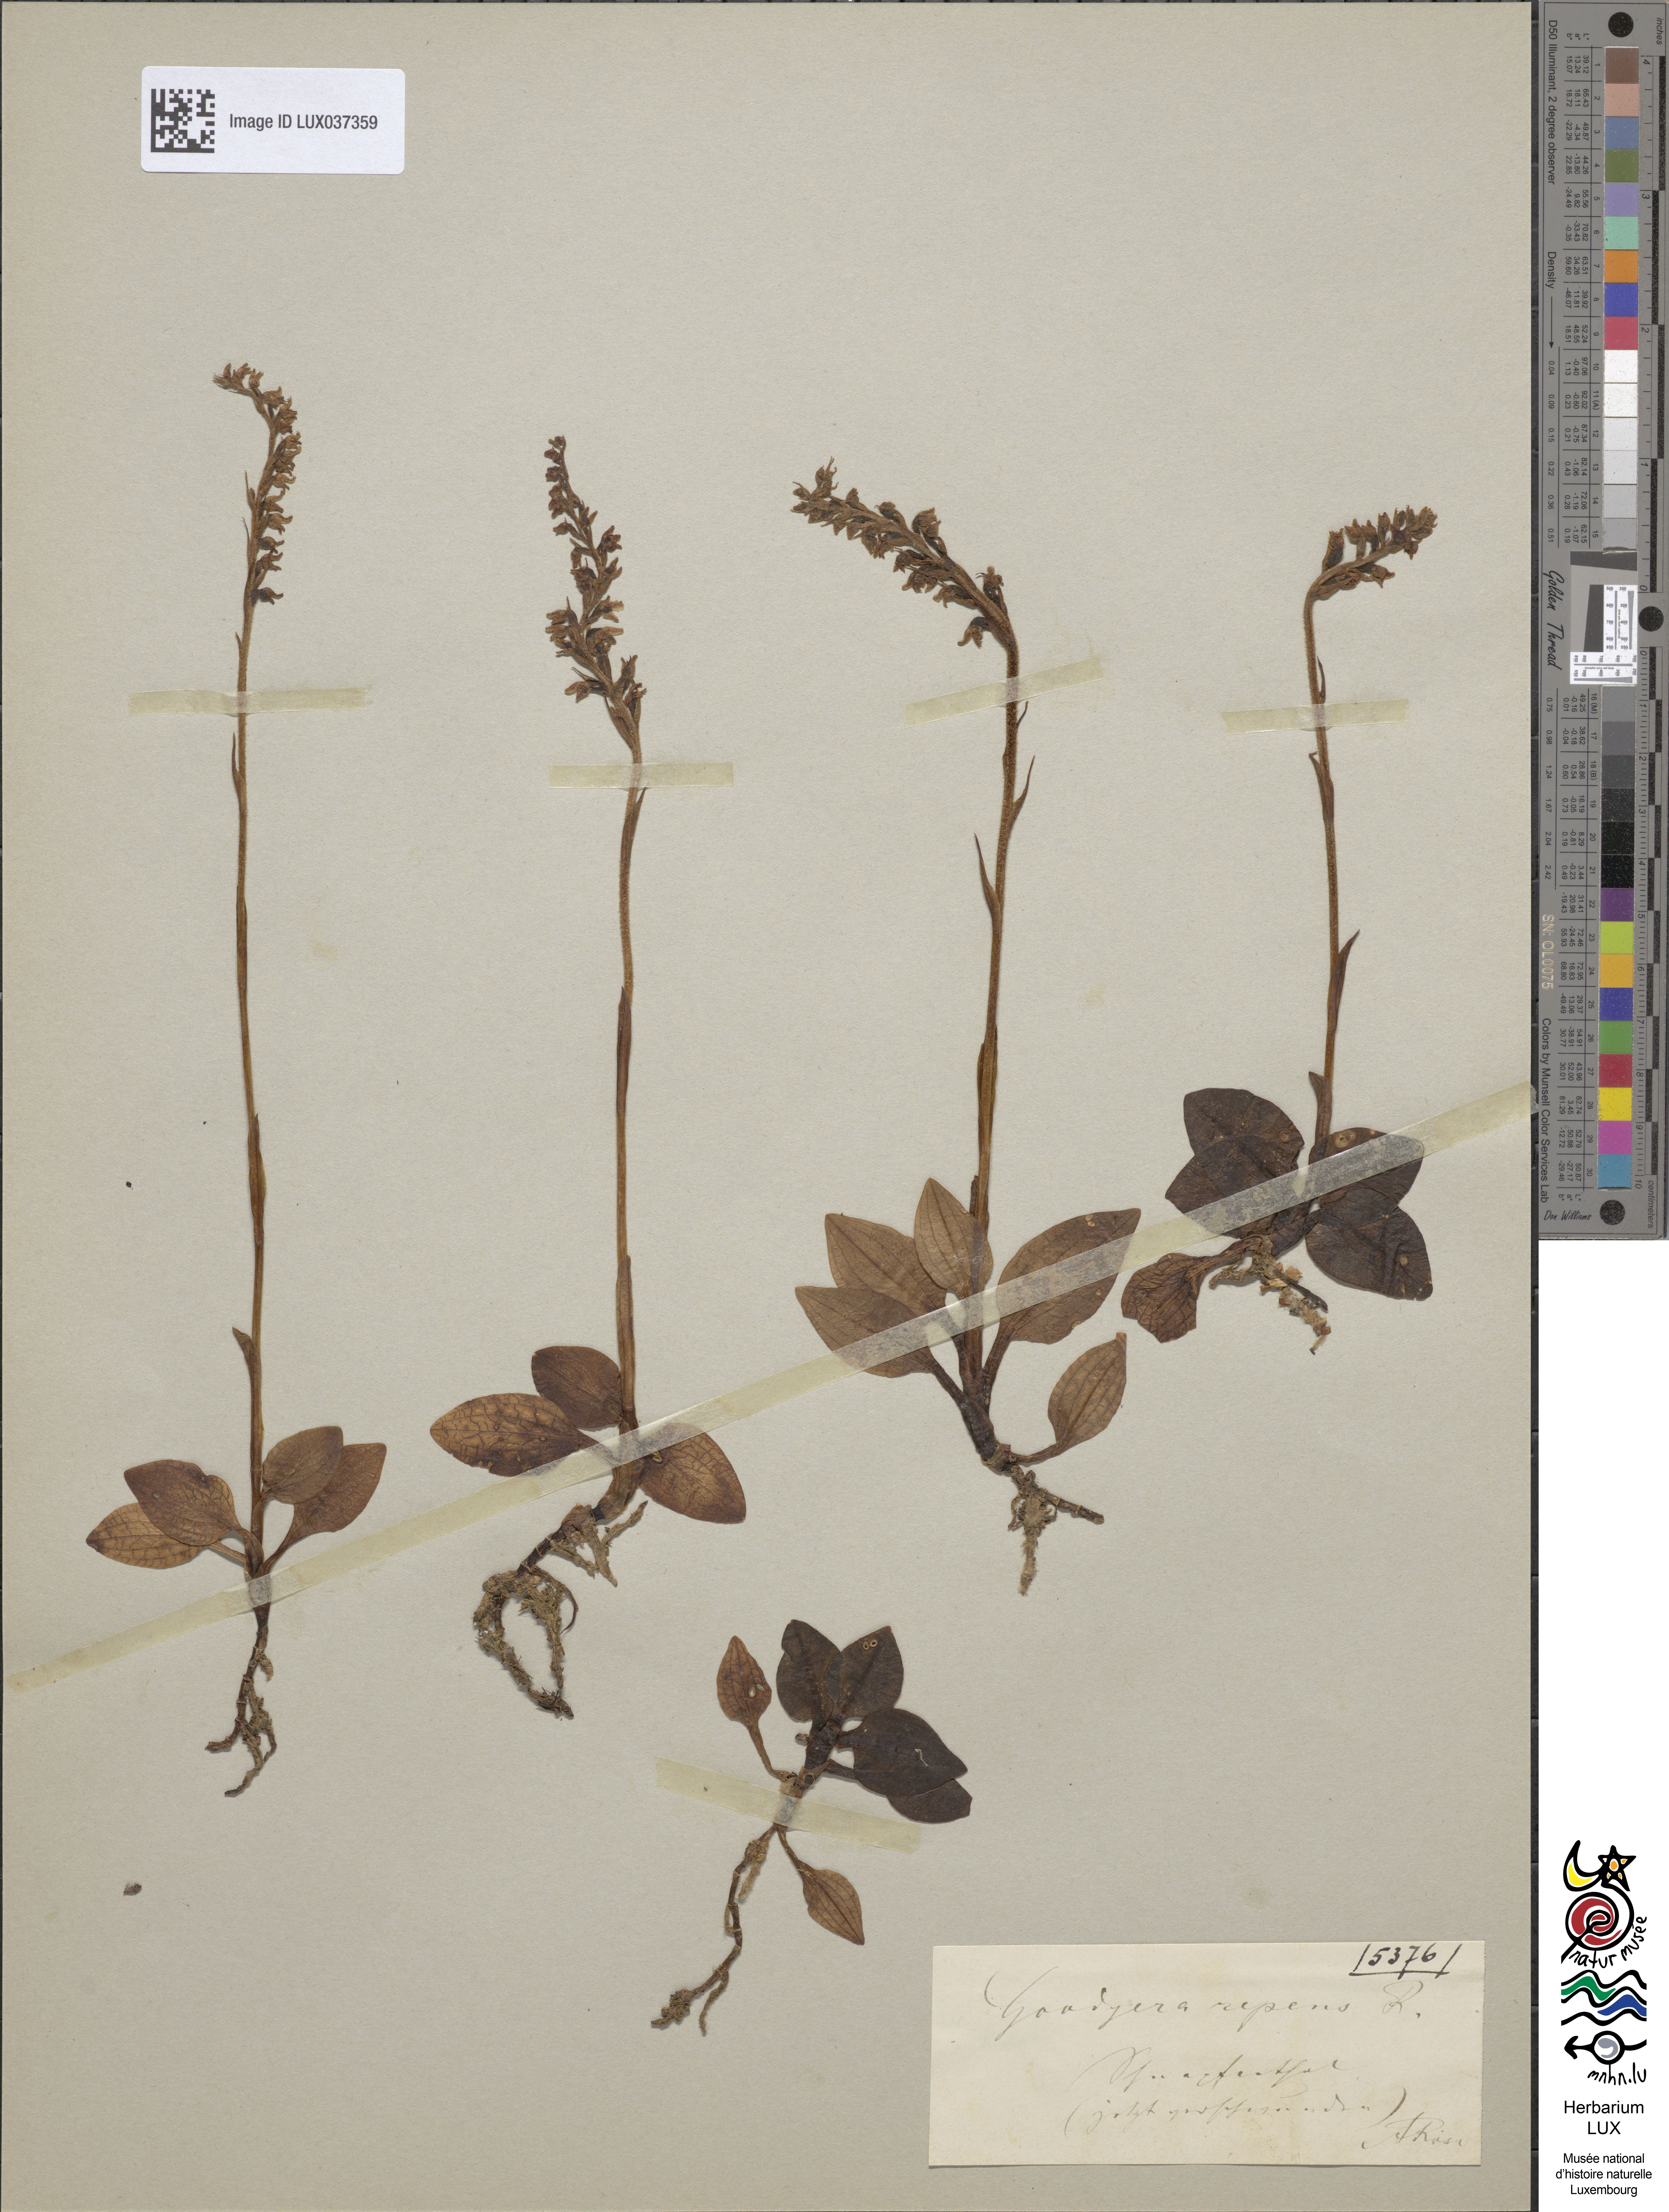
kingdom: Plantae
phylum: Tracheophyta
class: Liliopsida
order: Asparagales
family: Orchidaceae
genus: Goodyera
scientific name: Goodyera repens
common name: Creeping lady's-tresses
